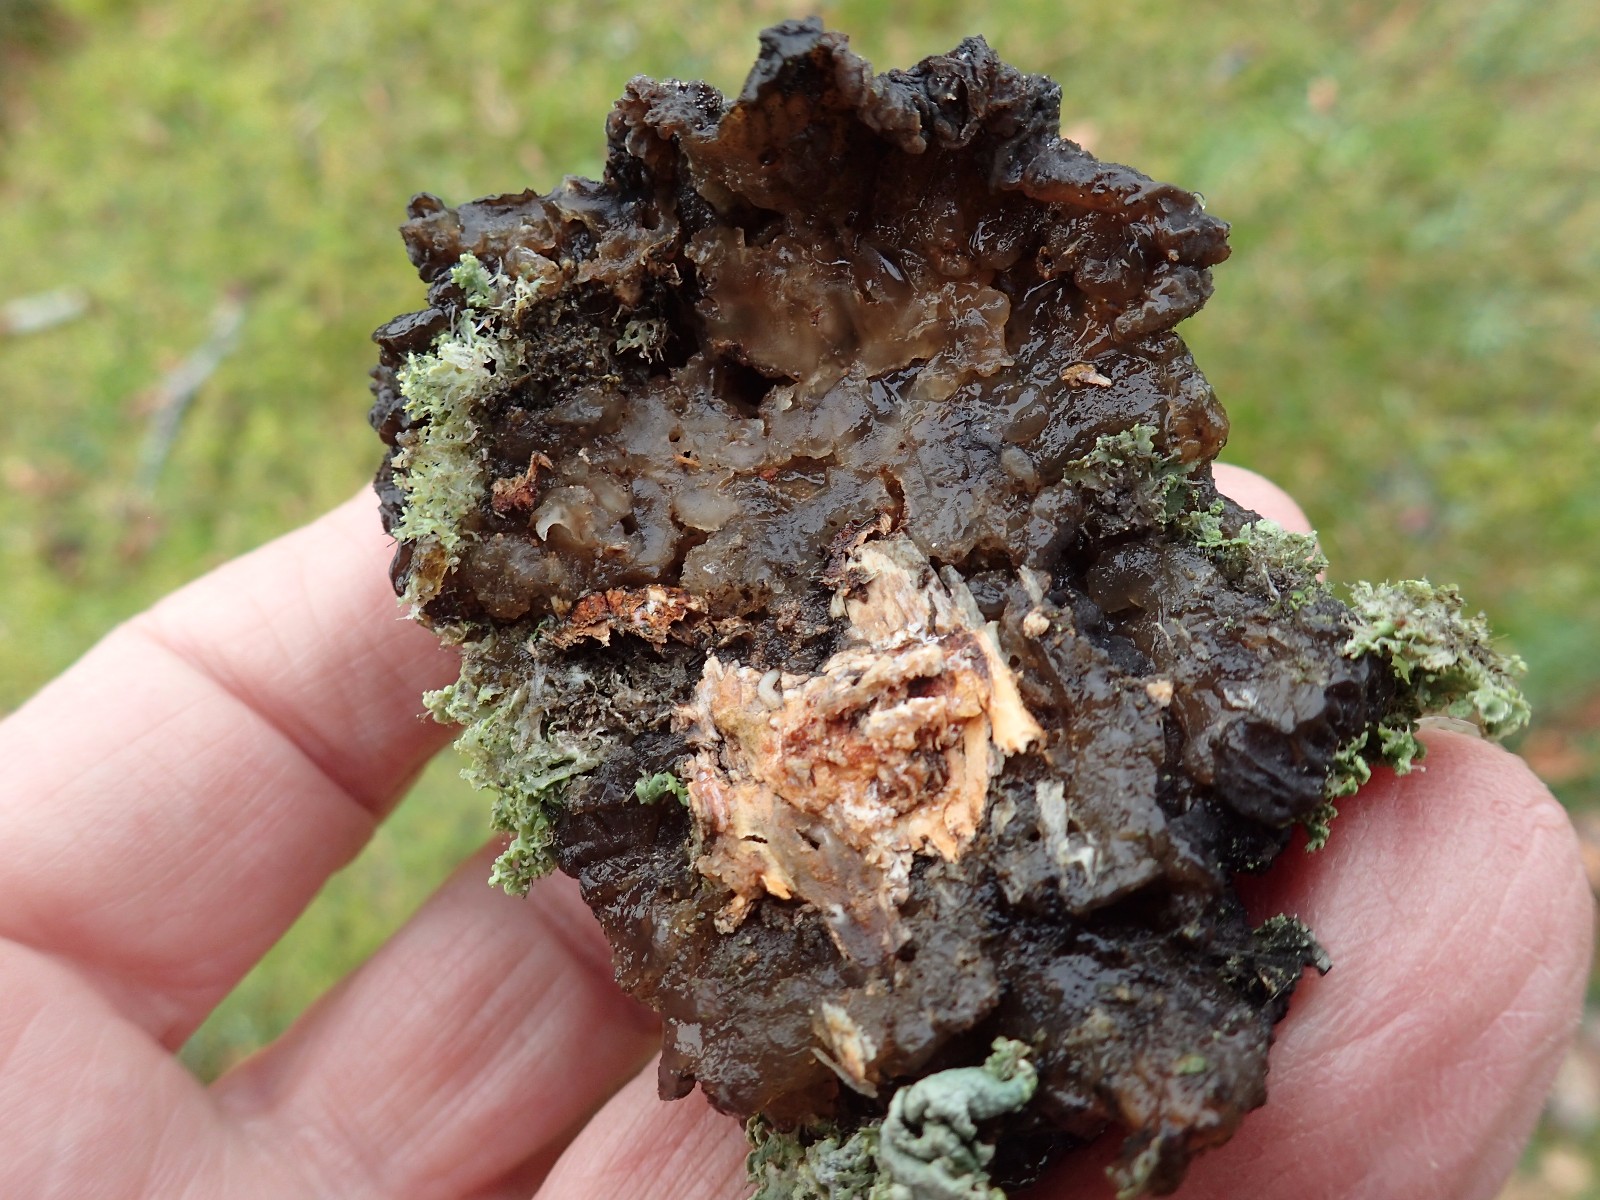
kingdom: Fungi
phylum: Basidiomycota
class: Agaricomycetes
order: Auriculariales
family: Auriculariaceae
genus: Exidia
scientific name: Exidia nigricans
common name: almindelig bævretop
